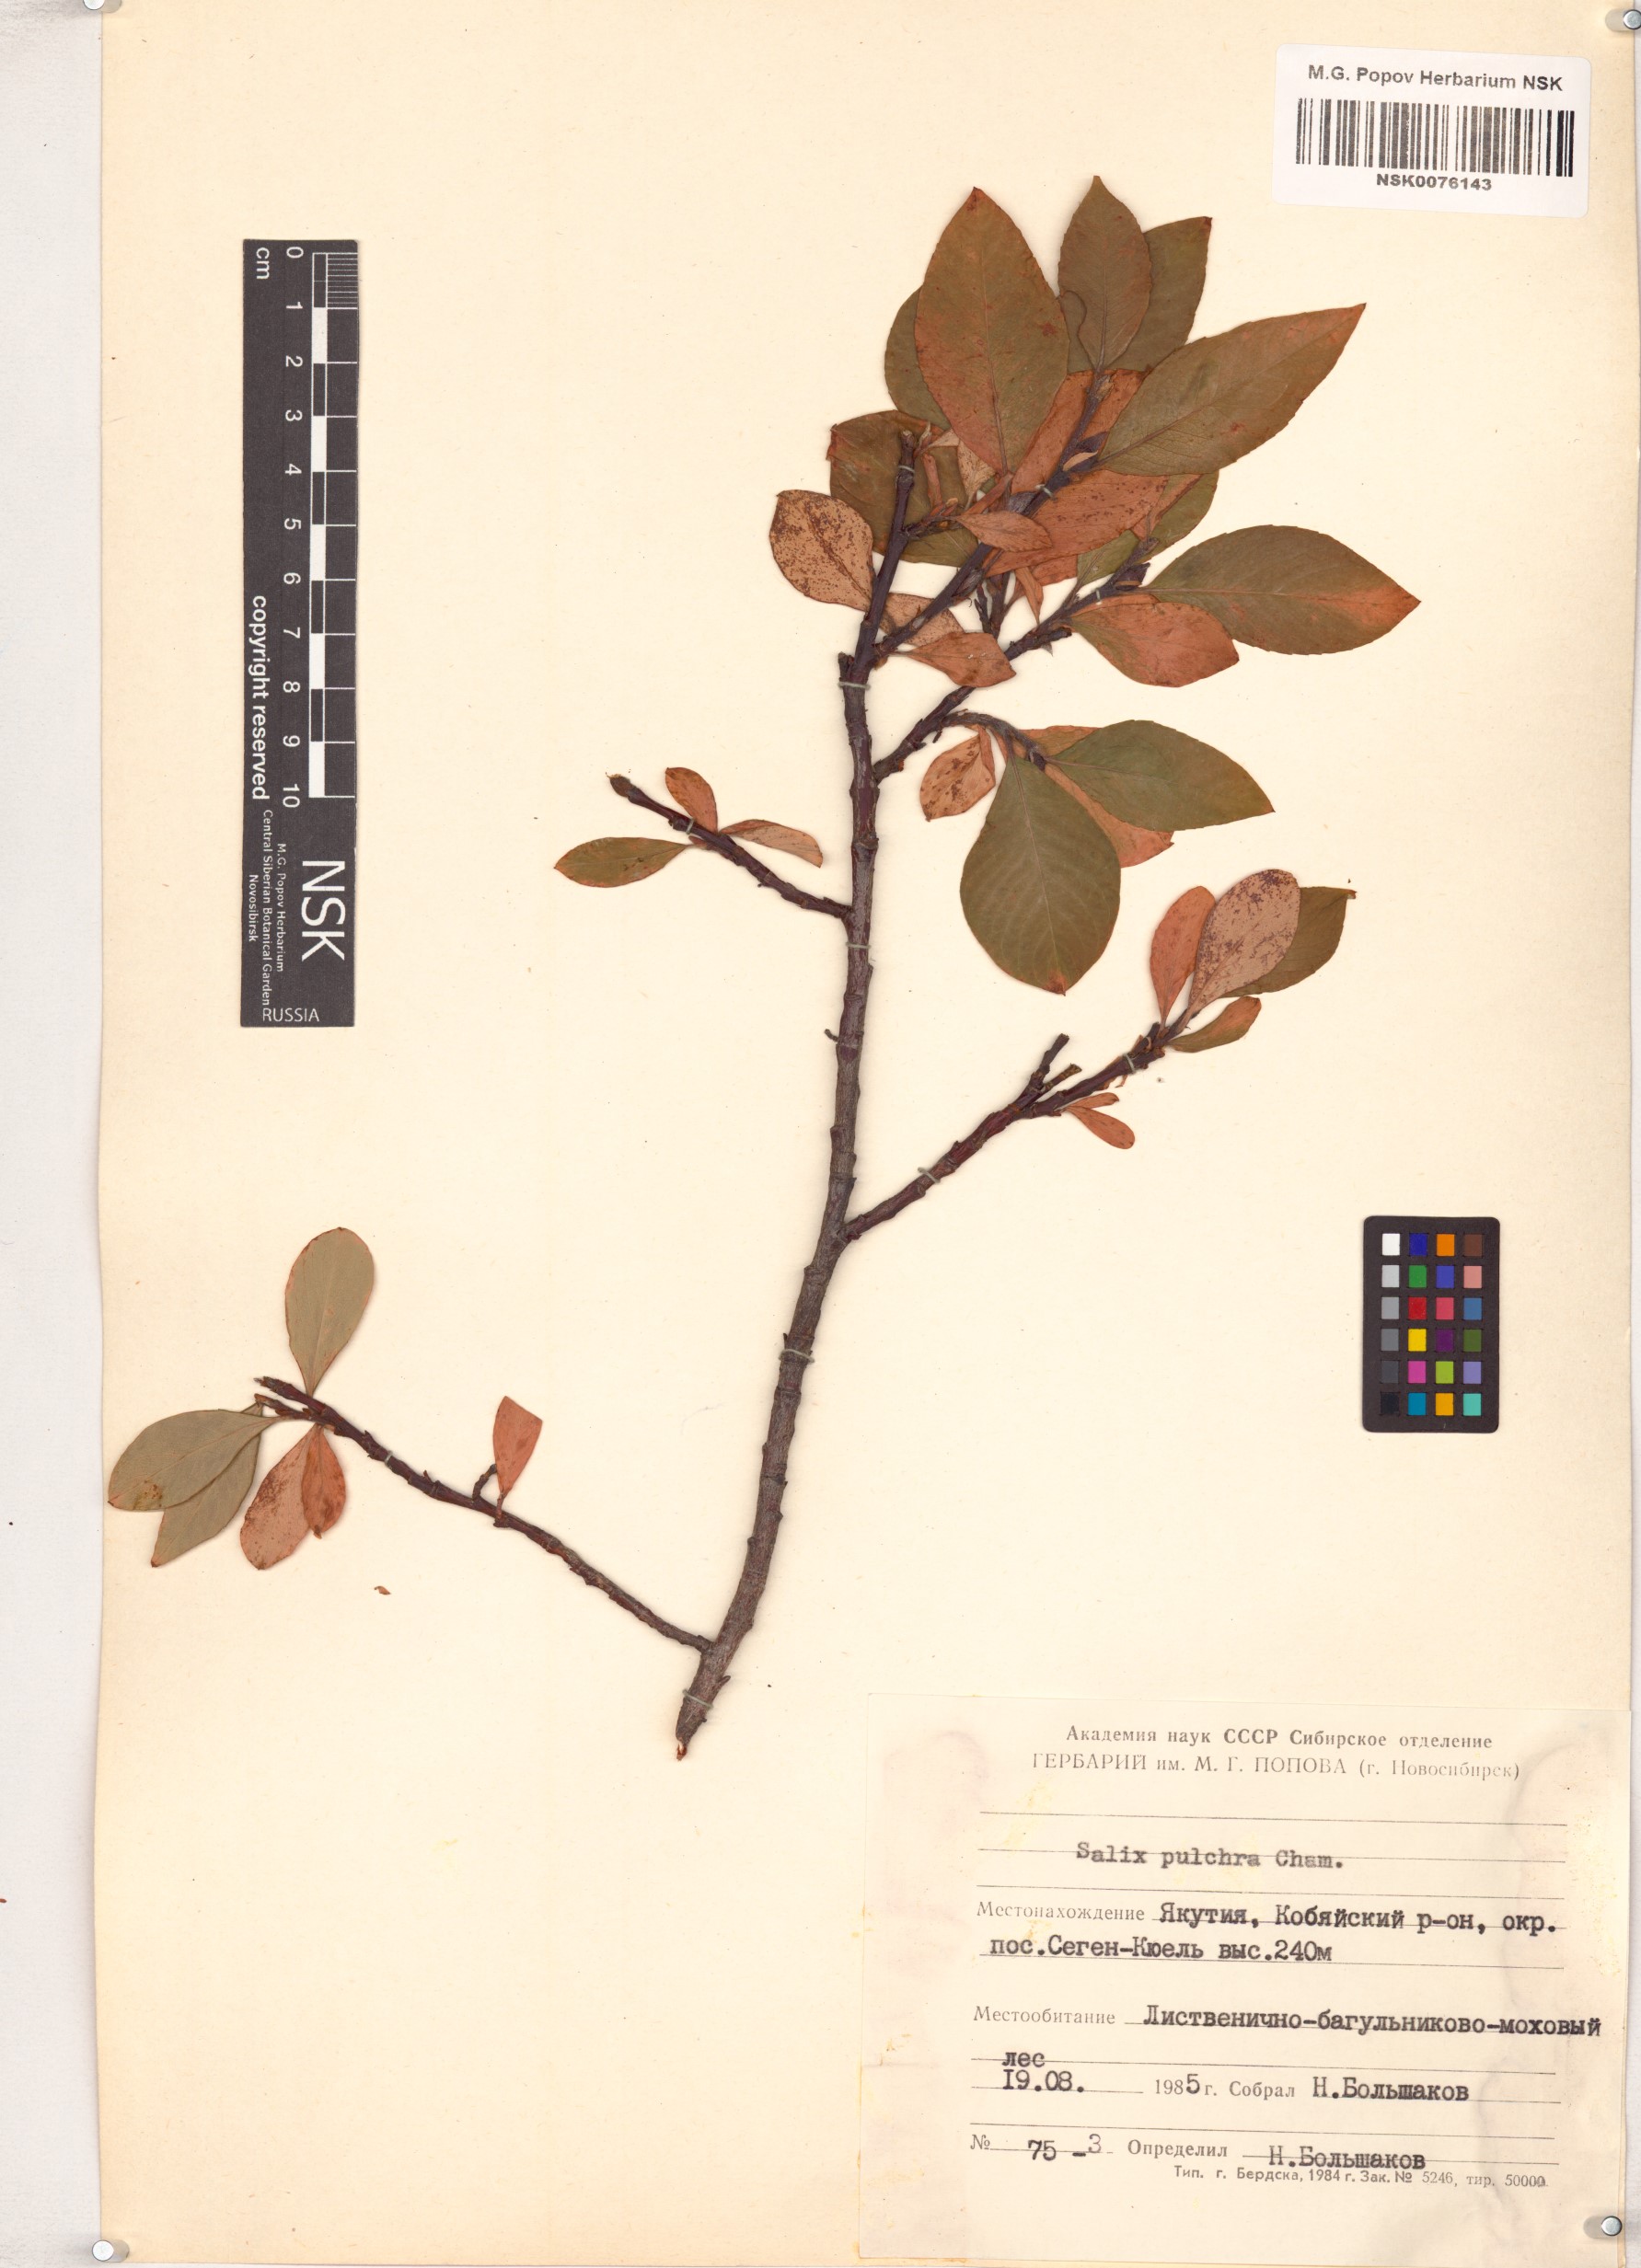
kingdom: Plantae
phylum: Tracheophyta
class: Magnoliopsida
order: Malpighiales
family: Salicaceae
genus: Salix
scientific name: Salix pulchra
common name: Diamond-leaved willow
